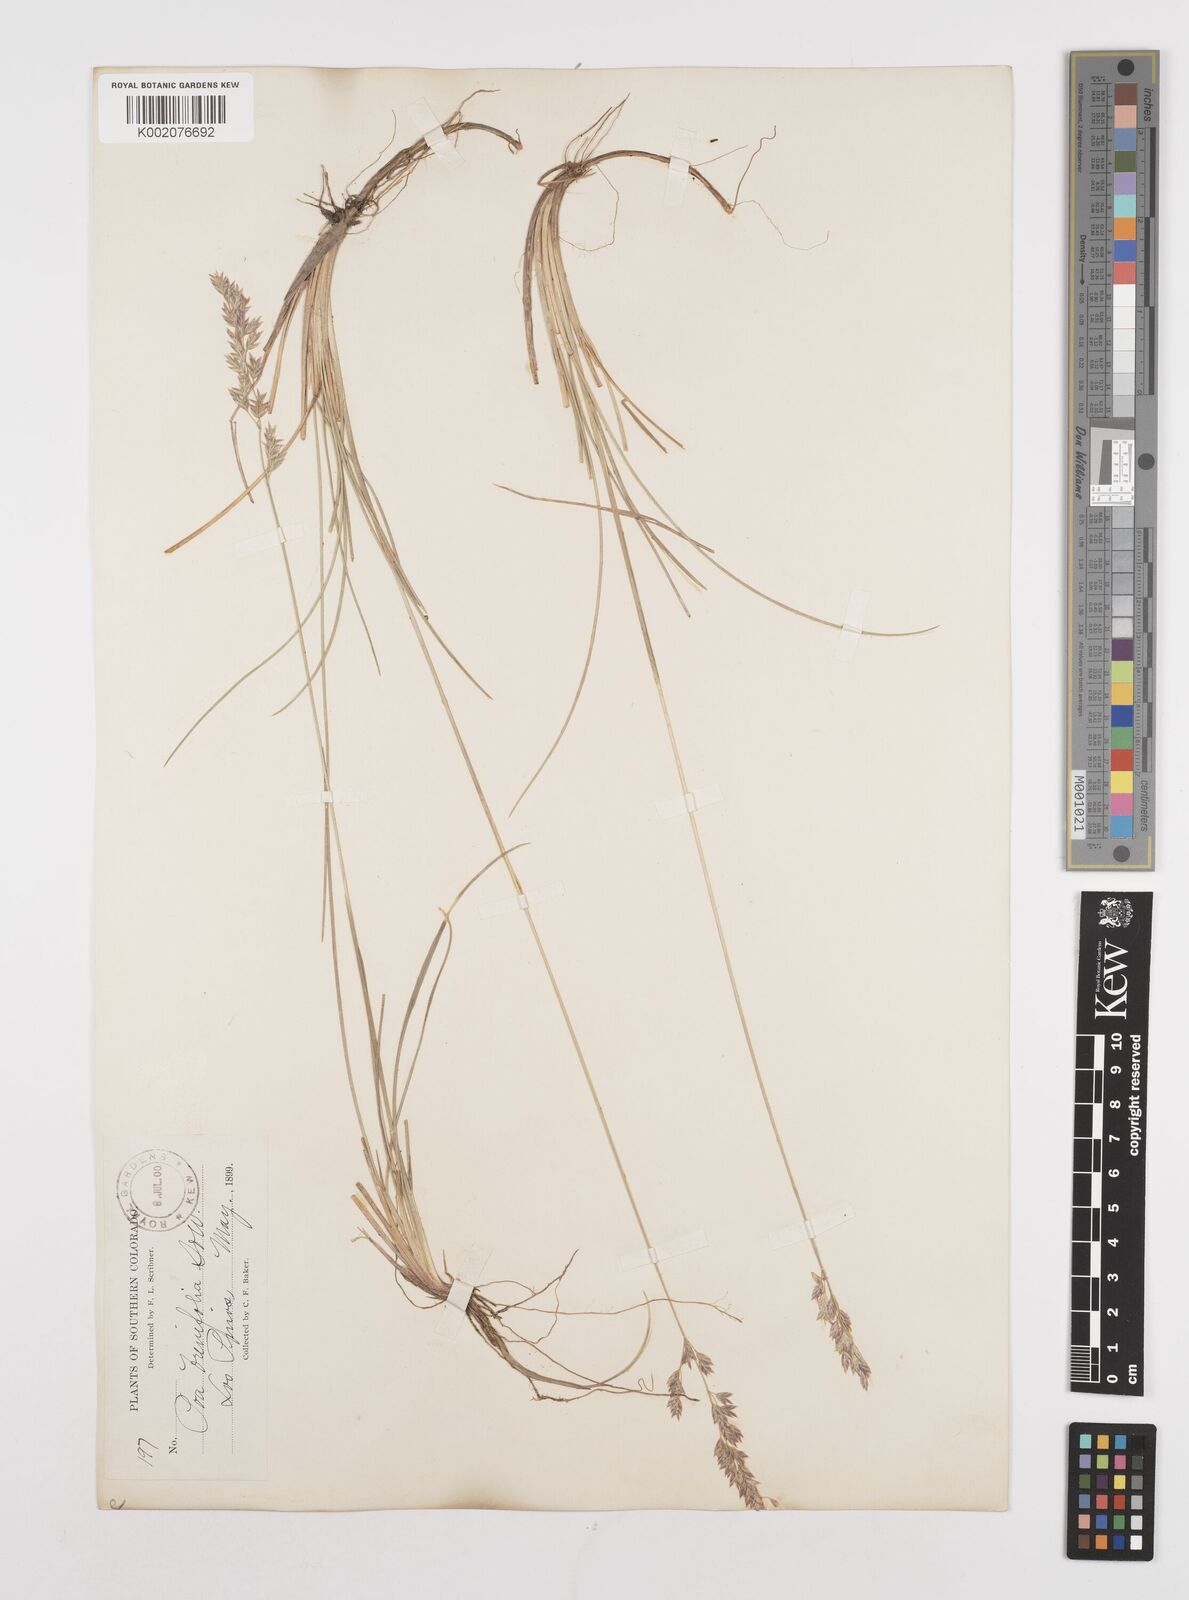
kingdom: Plantae
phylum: Tracheophyta
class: Liliopsida
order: Poales
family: Poaceae
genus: Poa
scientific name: Poa
